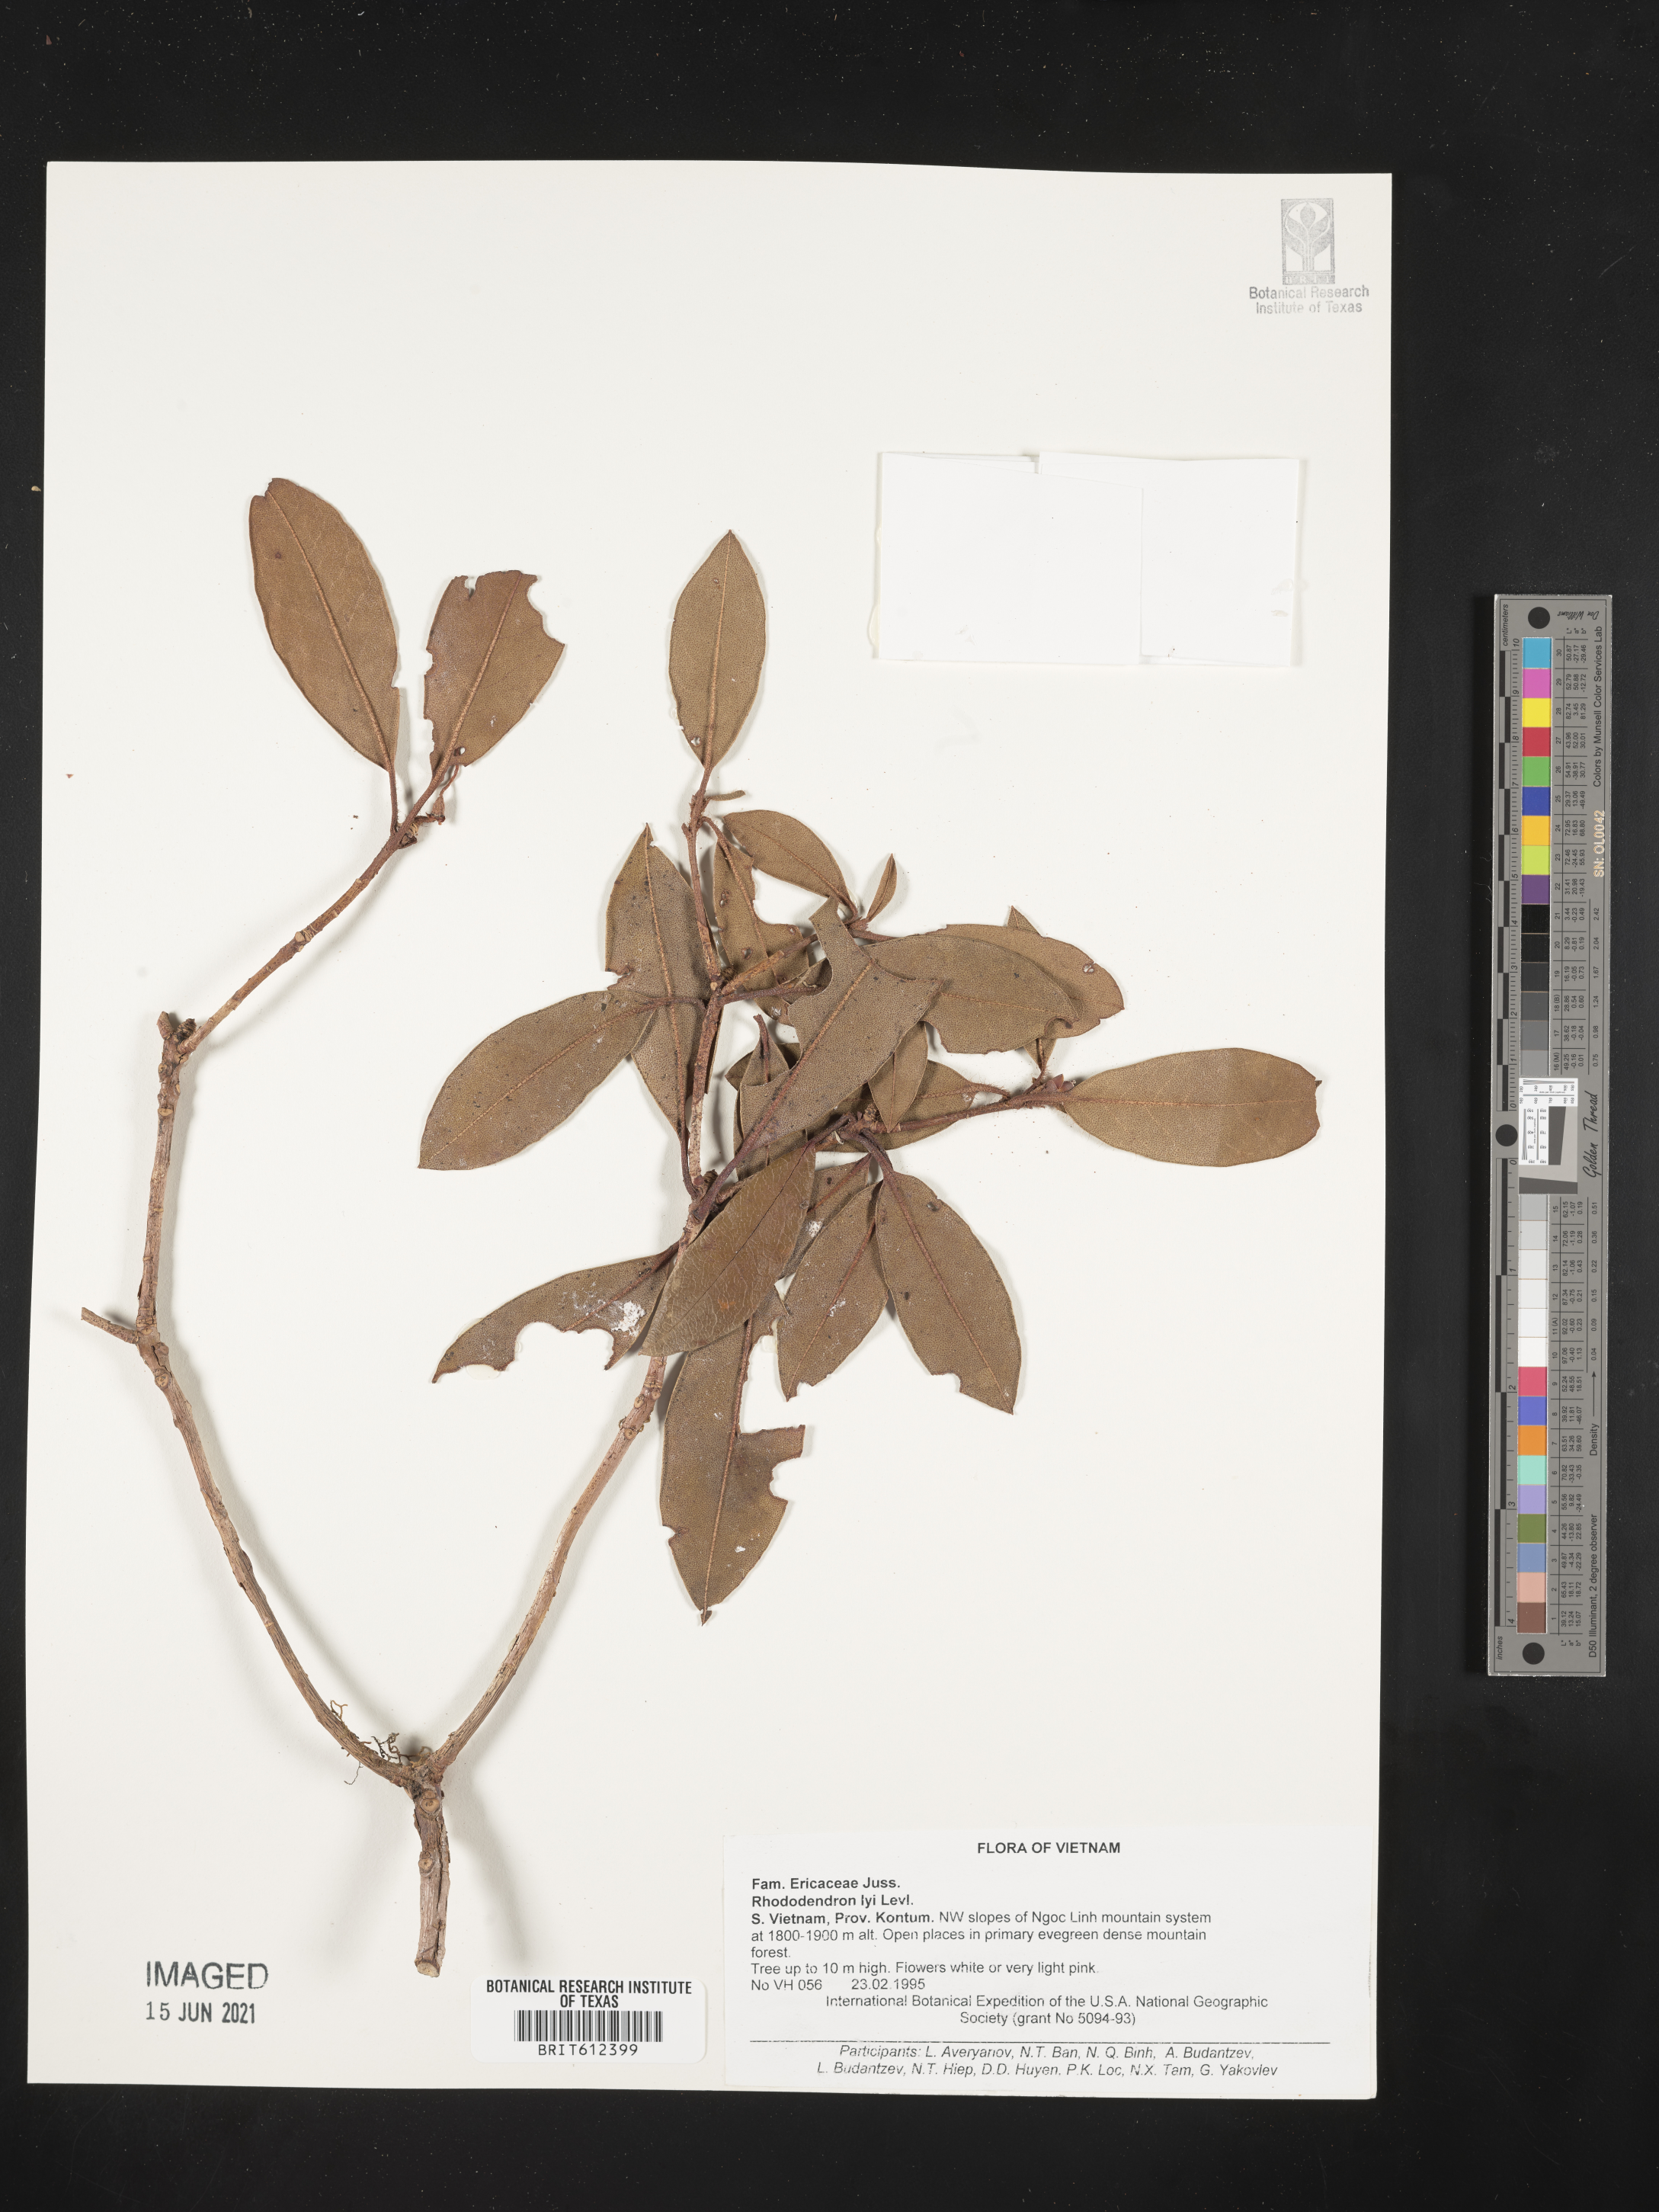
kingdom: Plantae
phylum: Tracheophyta
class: Magnoliopsida
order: Ericales
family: Ericaceae
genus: Rhododendron
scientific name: Rhododendron ciliicalyx
